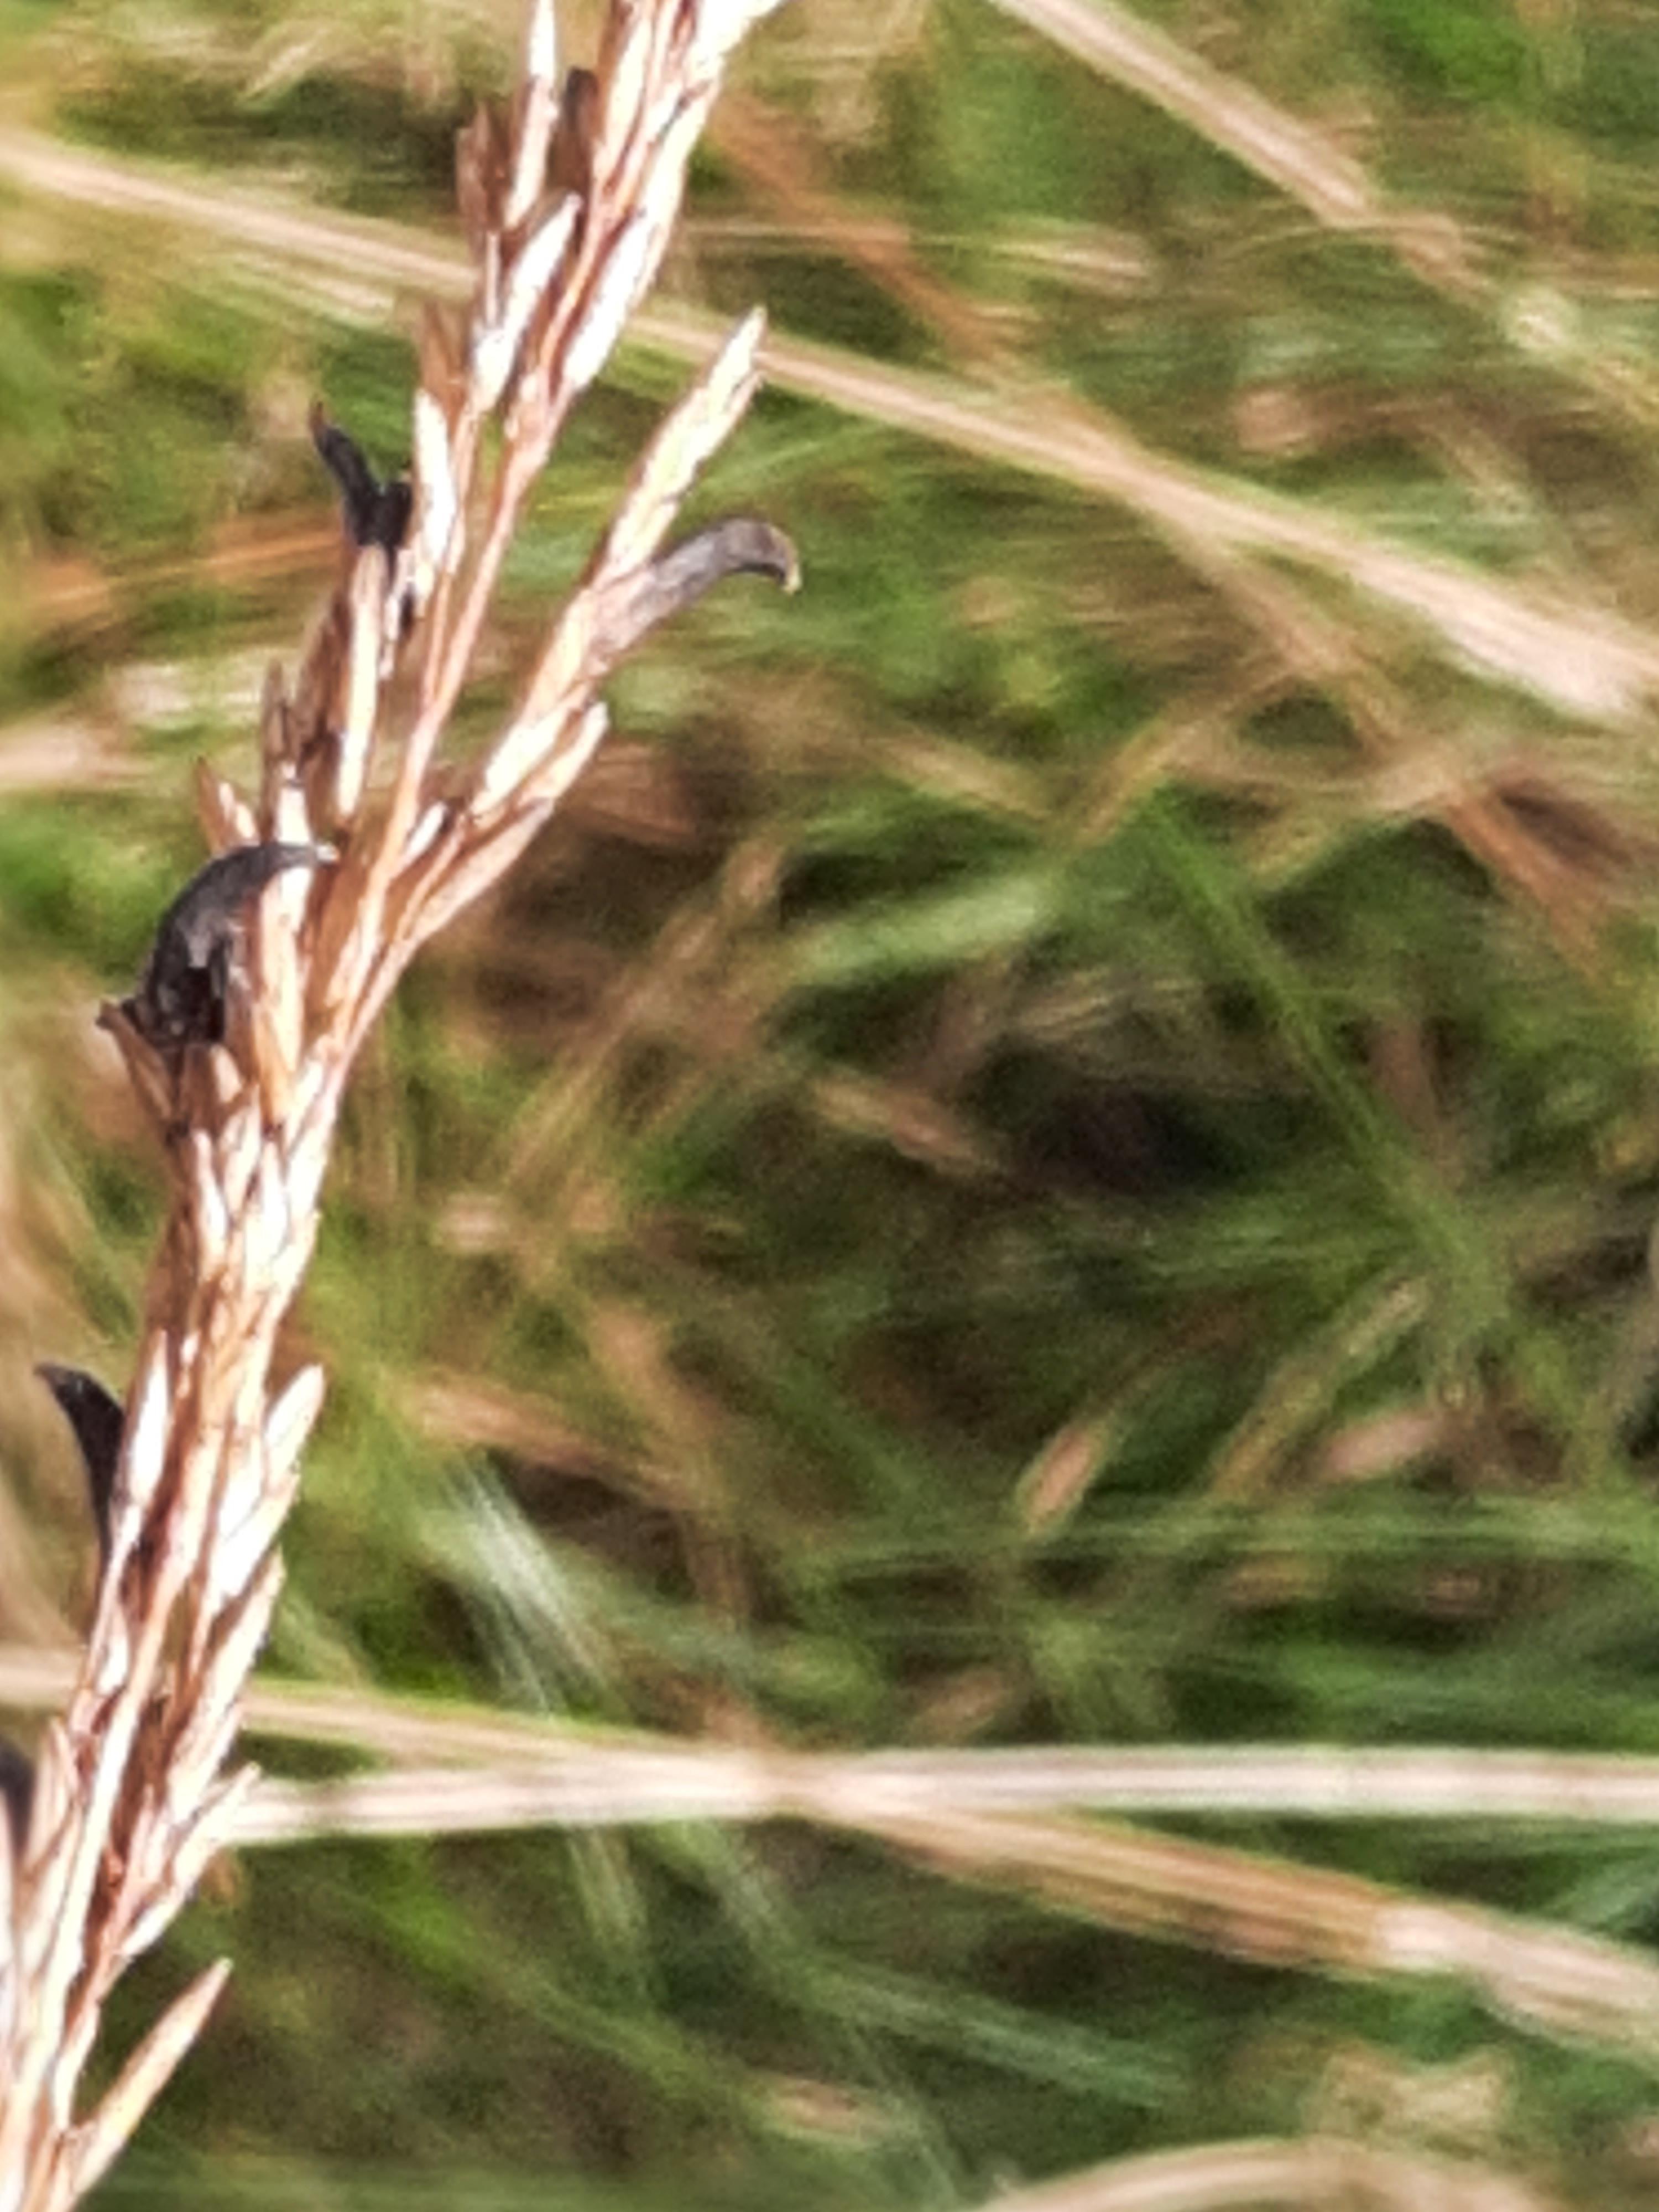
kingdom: Fungi
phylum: Ascomycota
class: Sordariomycetes
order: Hypocreales
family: Clavicipitaceae
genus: Claviceps
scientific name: Claviceps purpurea
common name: almindelig meldrøjer
